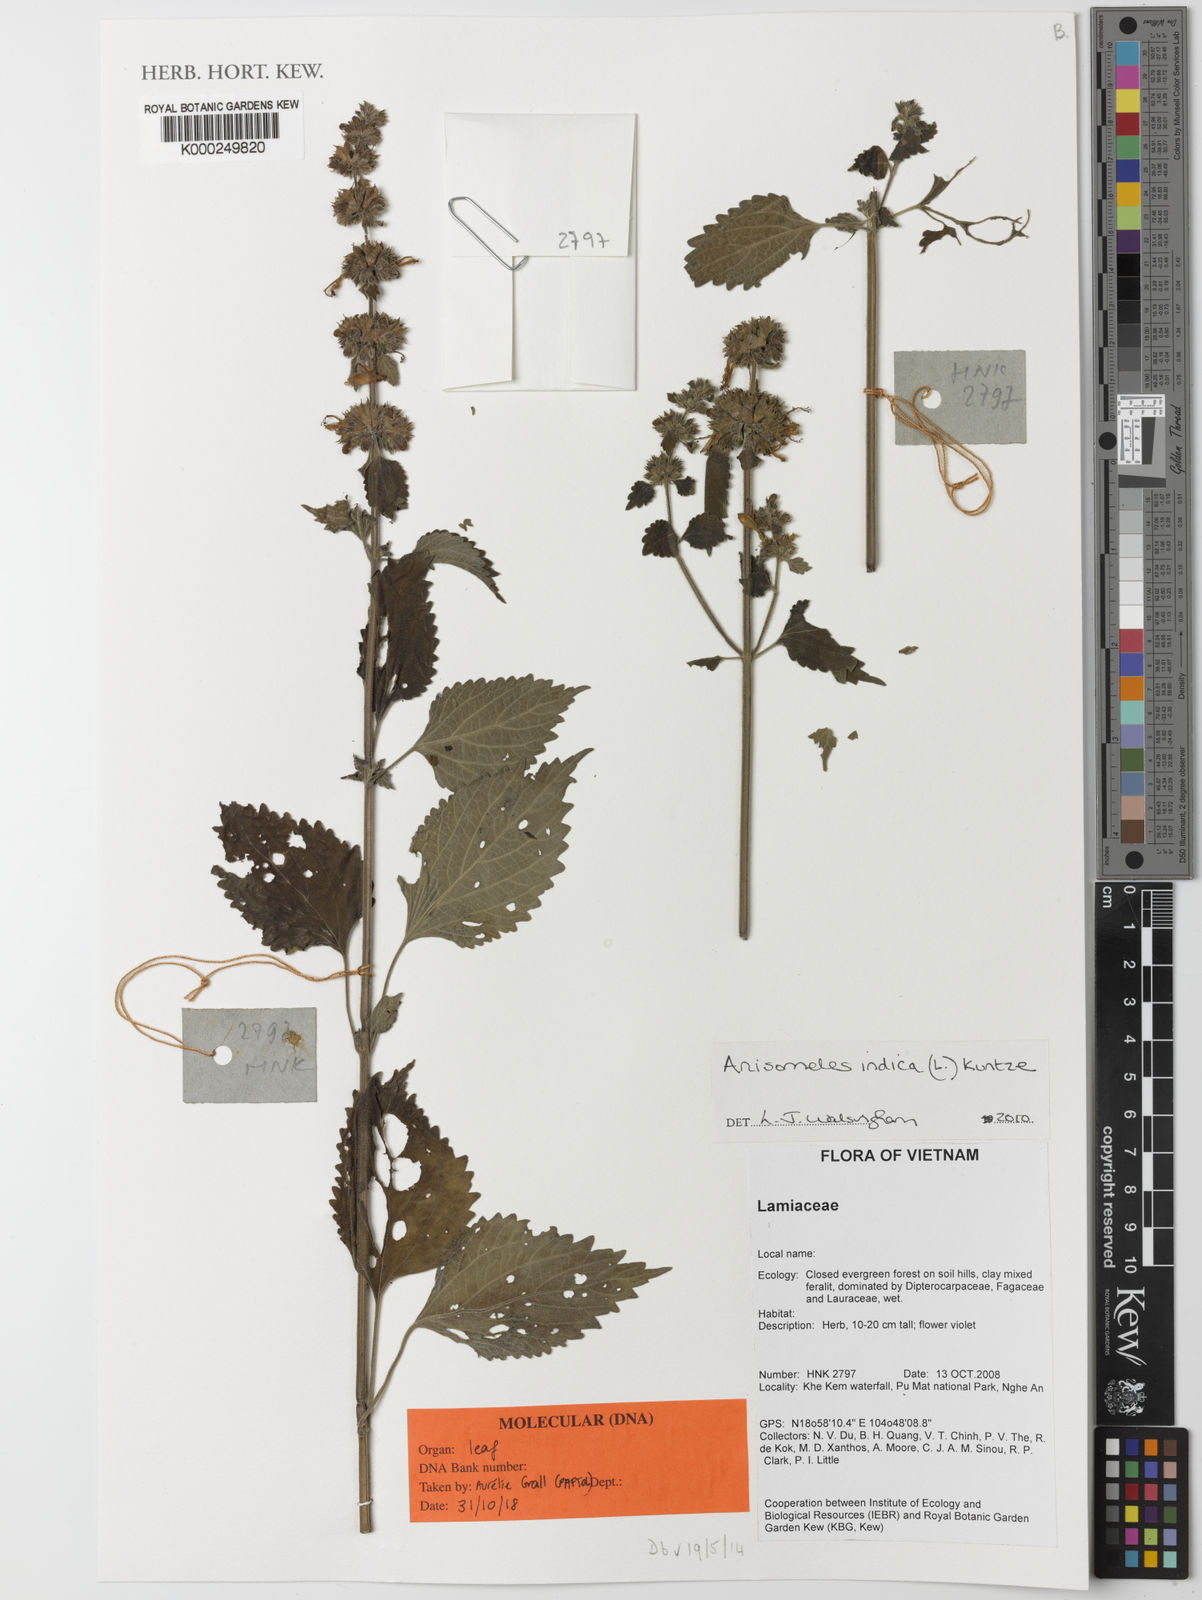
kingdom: Plantae
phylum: Tracheophyta
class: Magnoliopsida
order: Lamiales
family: Lamiaceae
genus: Anisomeles
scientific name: Anisomeles indica
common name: Catmint
